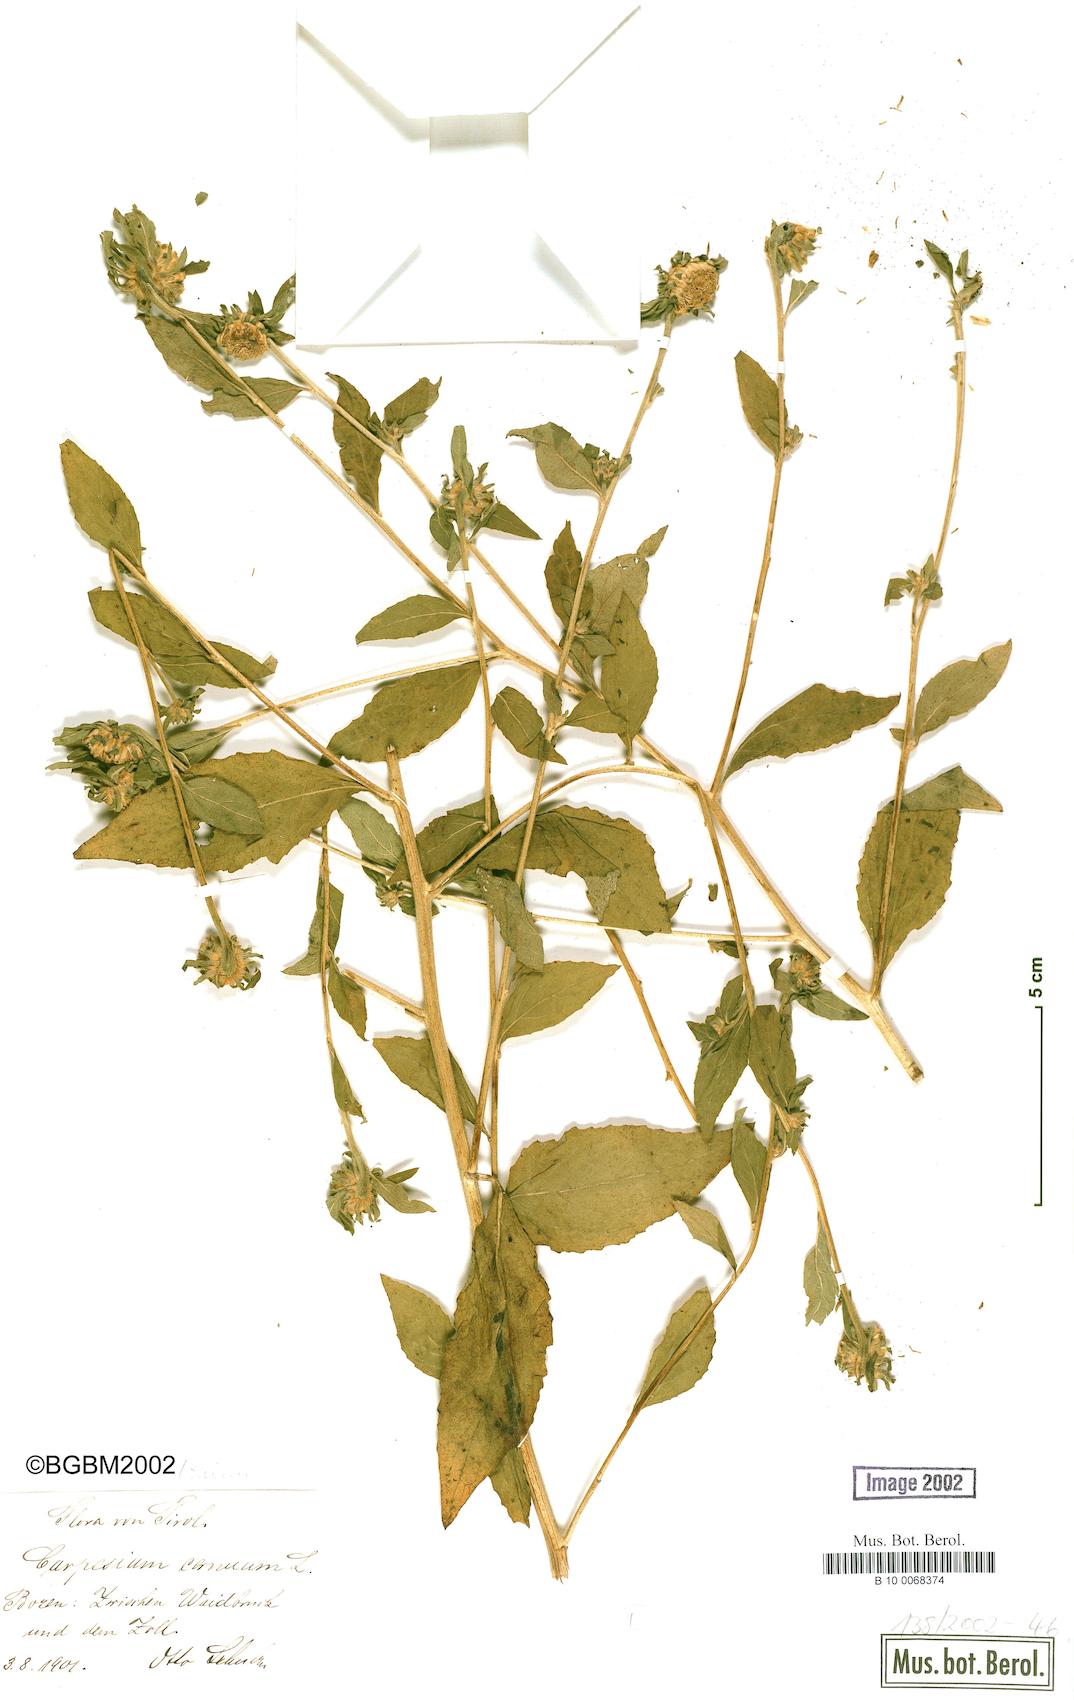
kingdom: Plantae
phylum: Tracheophyta
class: Magnoliopsida
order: Asterales
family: Asteraceae
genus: Carpesium
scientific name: Carpesium cernuum
